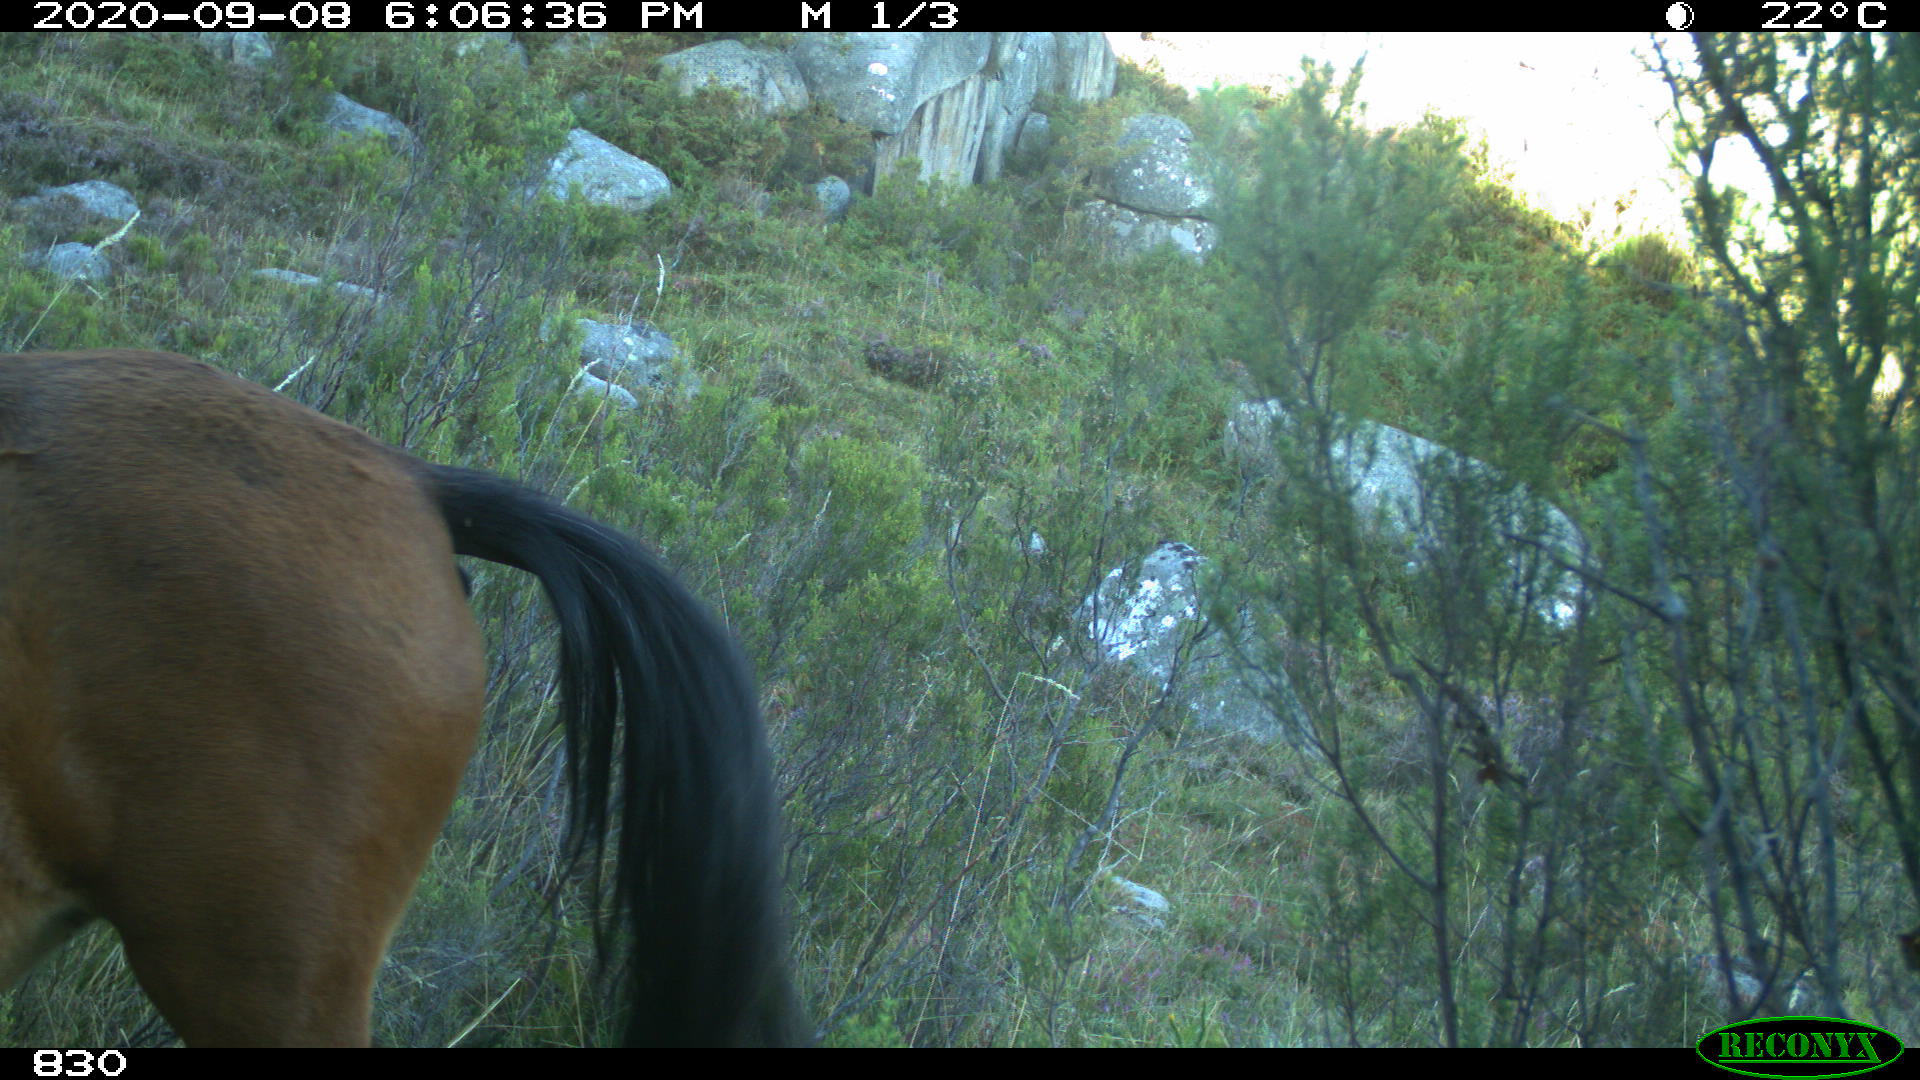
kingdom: Animalia
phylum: Chordata
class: Mammalia
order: Perissodactyla
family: Equidae
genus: Equus
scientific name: Equus caballus
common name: Horse
